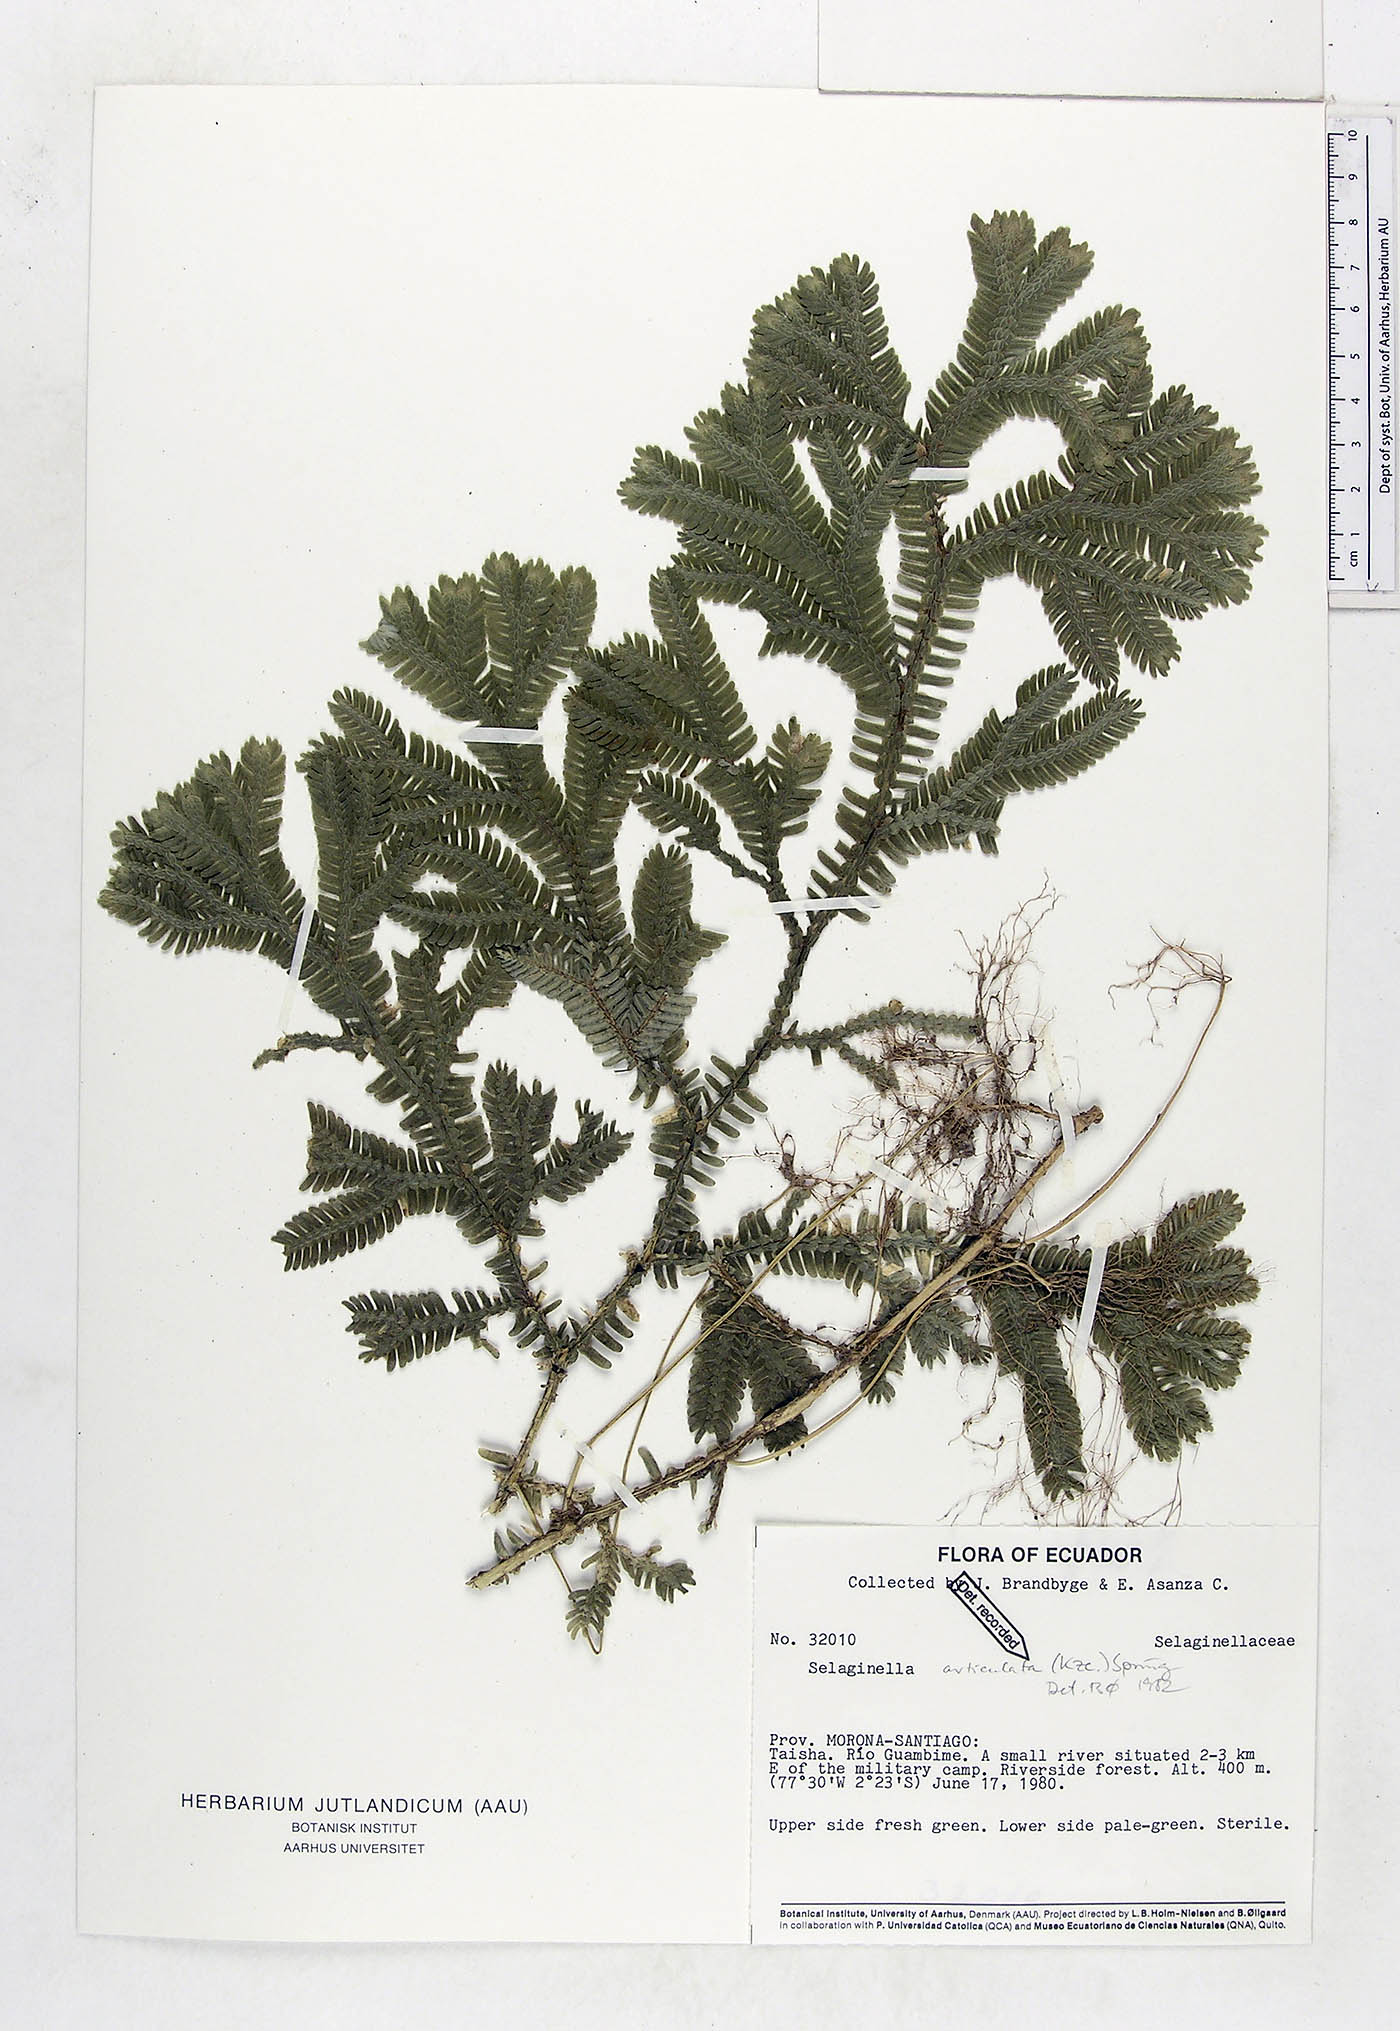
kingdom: Plantae
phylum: Tracheophyta
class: Lycopodiopsida
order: Selaginellales
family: Selaginellaceae
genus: Selaginella
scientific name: Selaginella articulata
